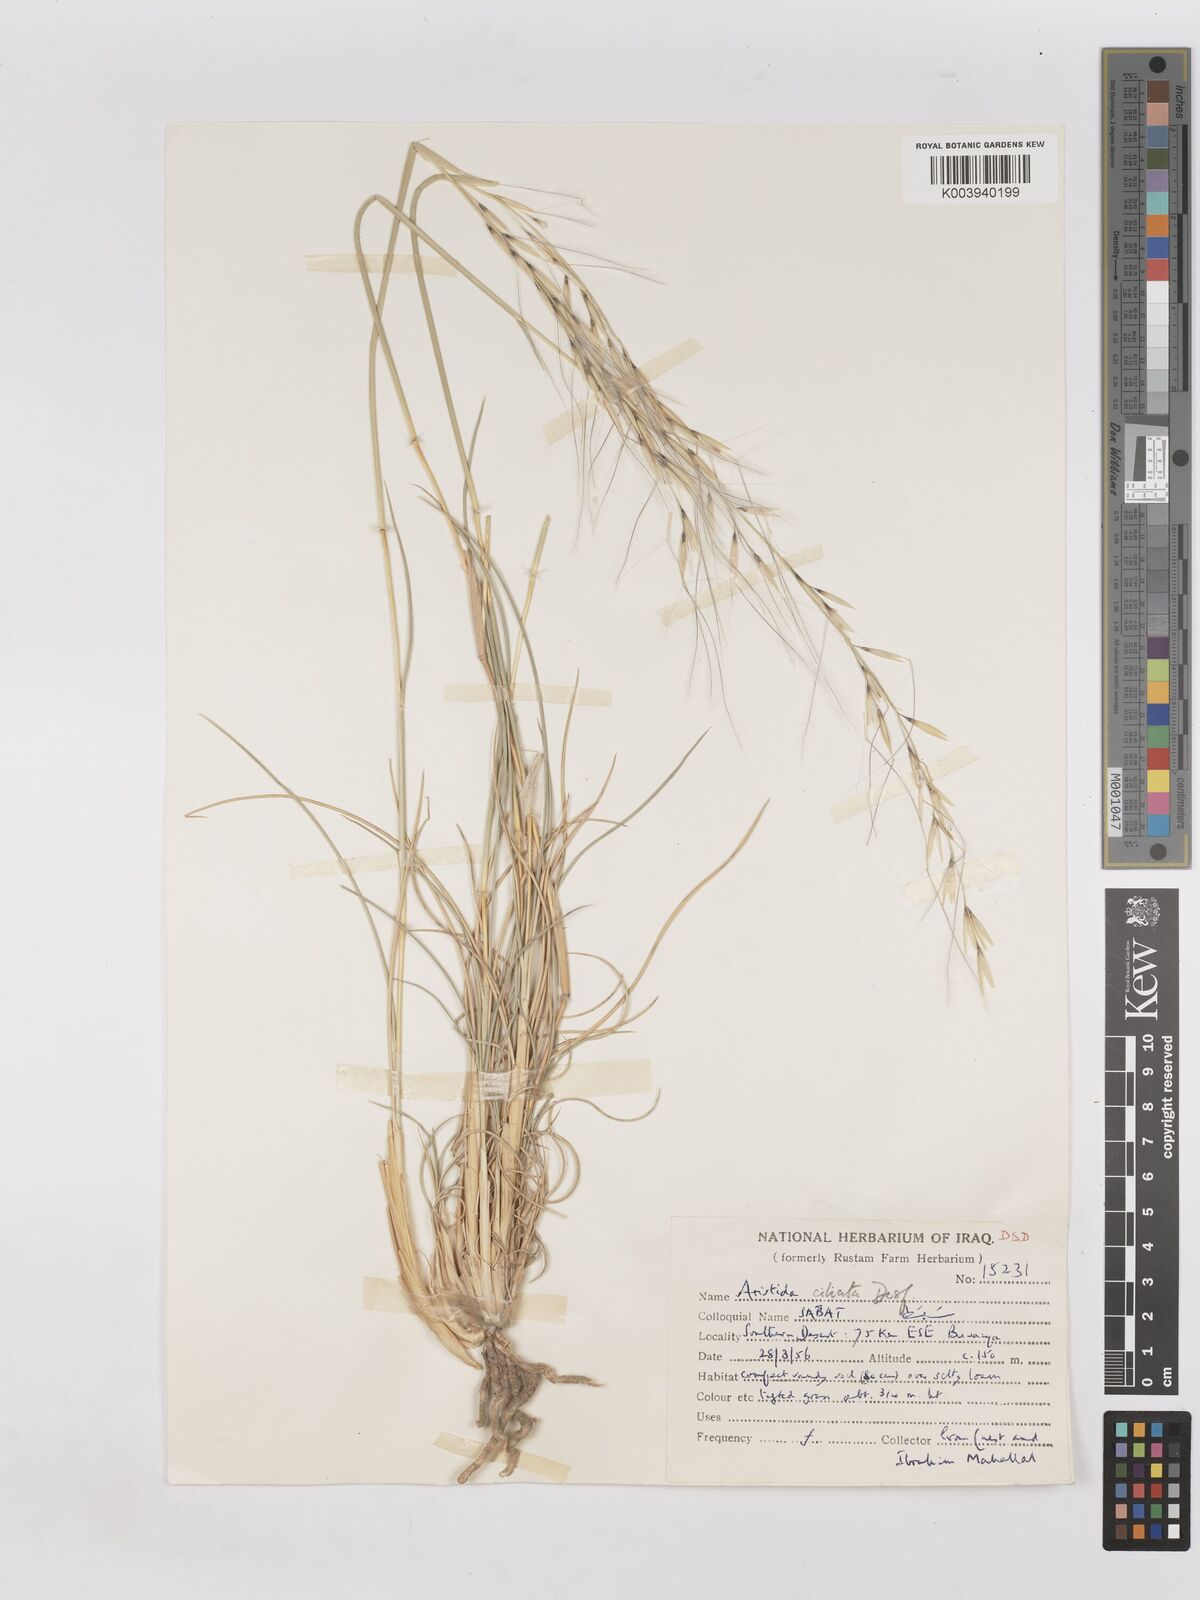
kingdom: Plantae
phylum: Tracheophyta
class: Liliopsida
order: Poales
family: Poaceae
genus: Stipagrostis
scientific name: Stipagrostis ciliata
